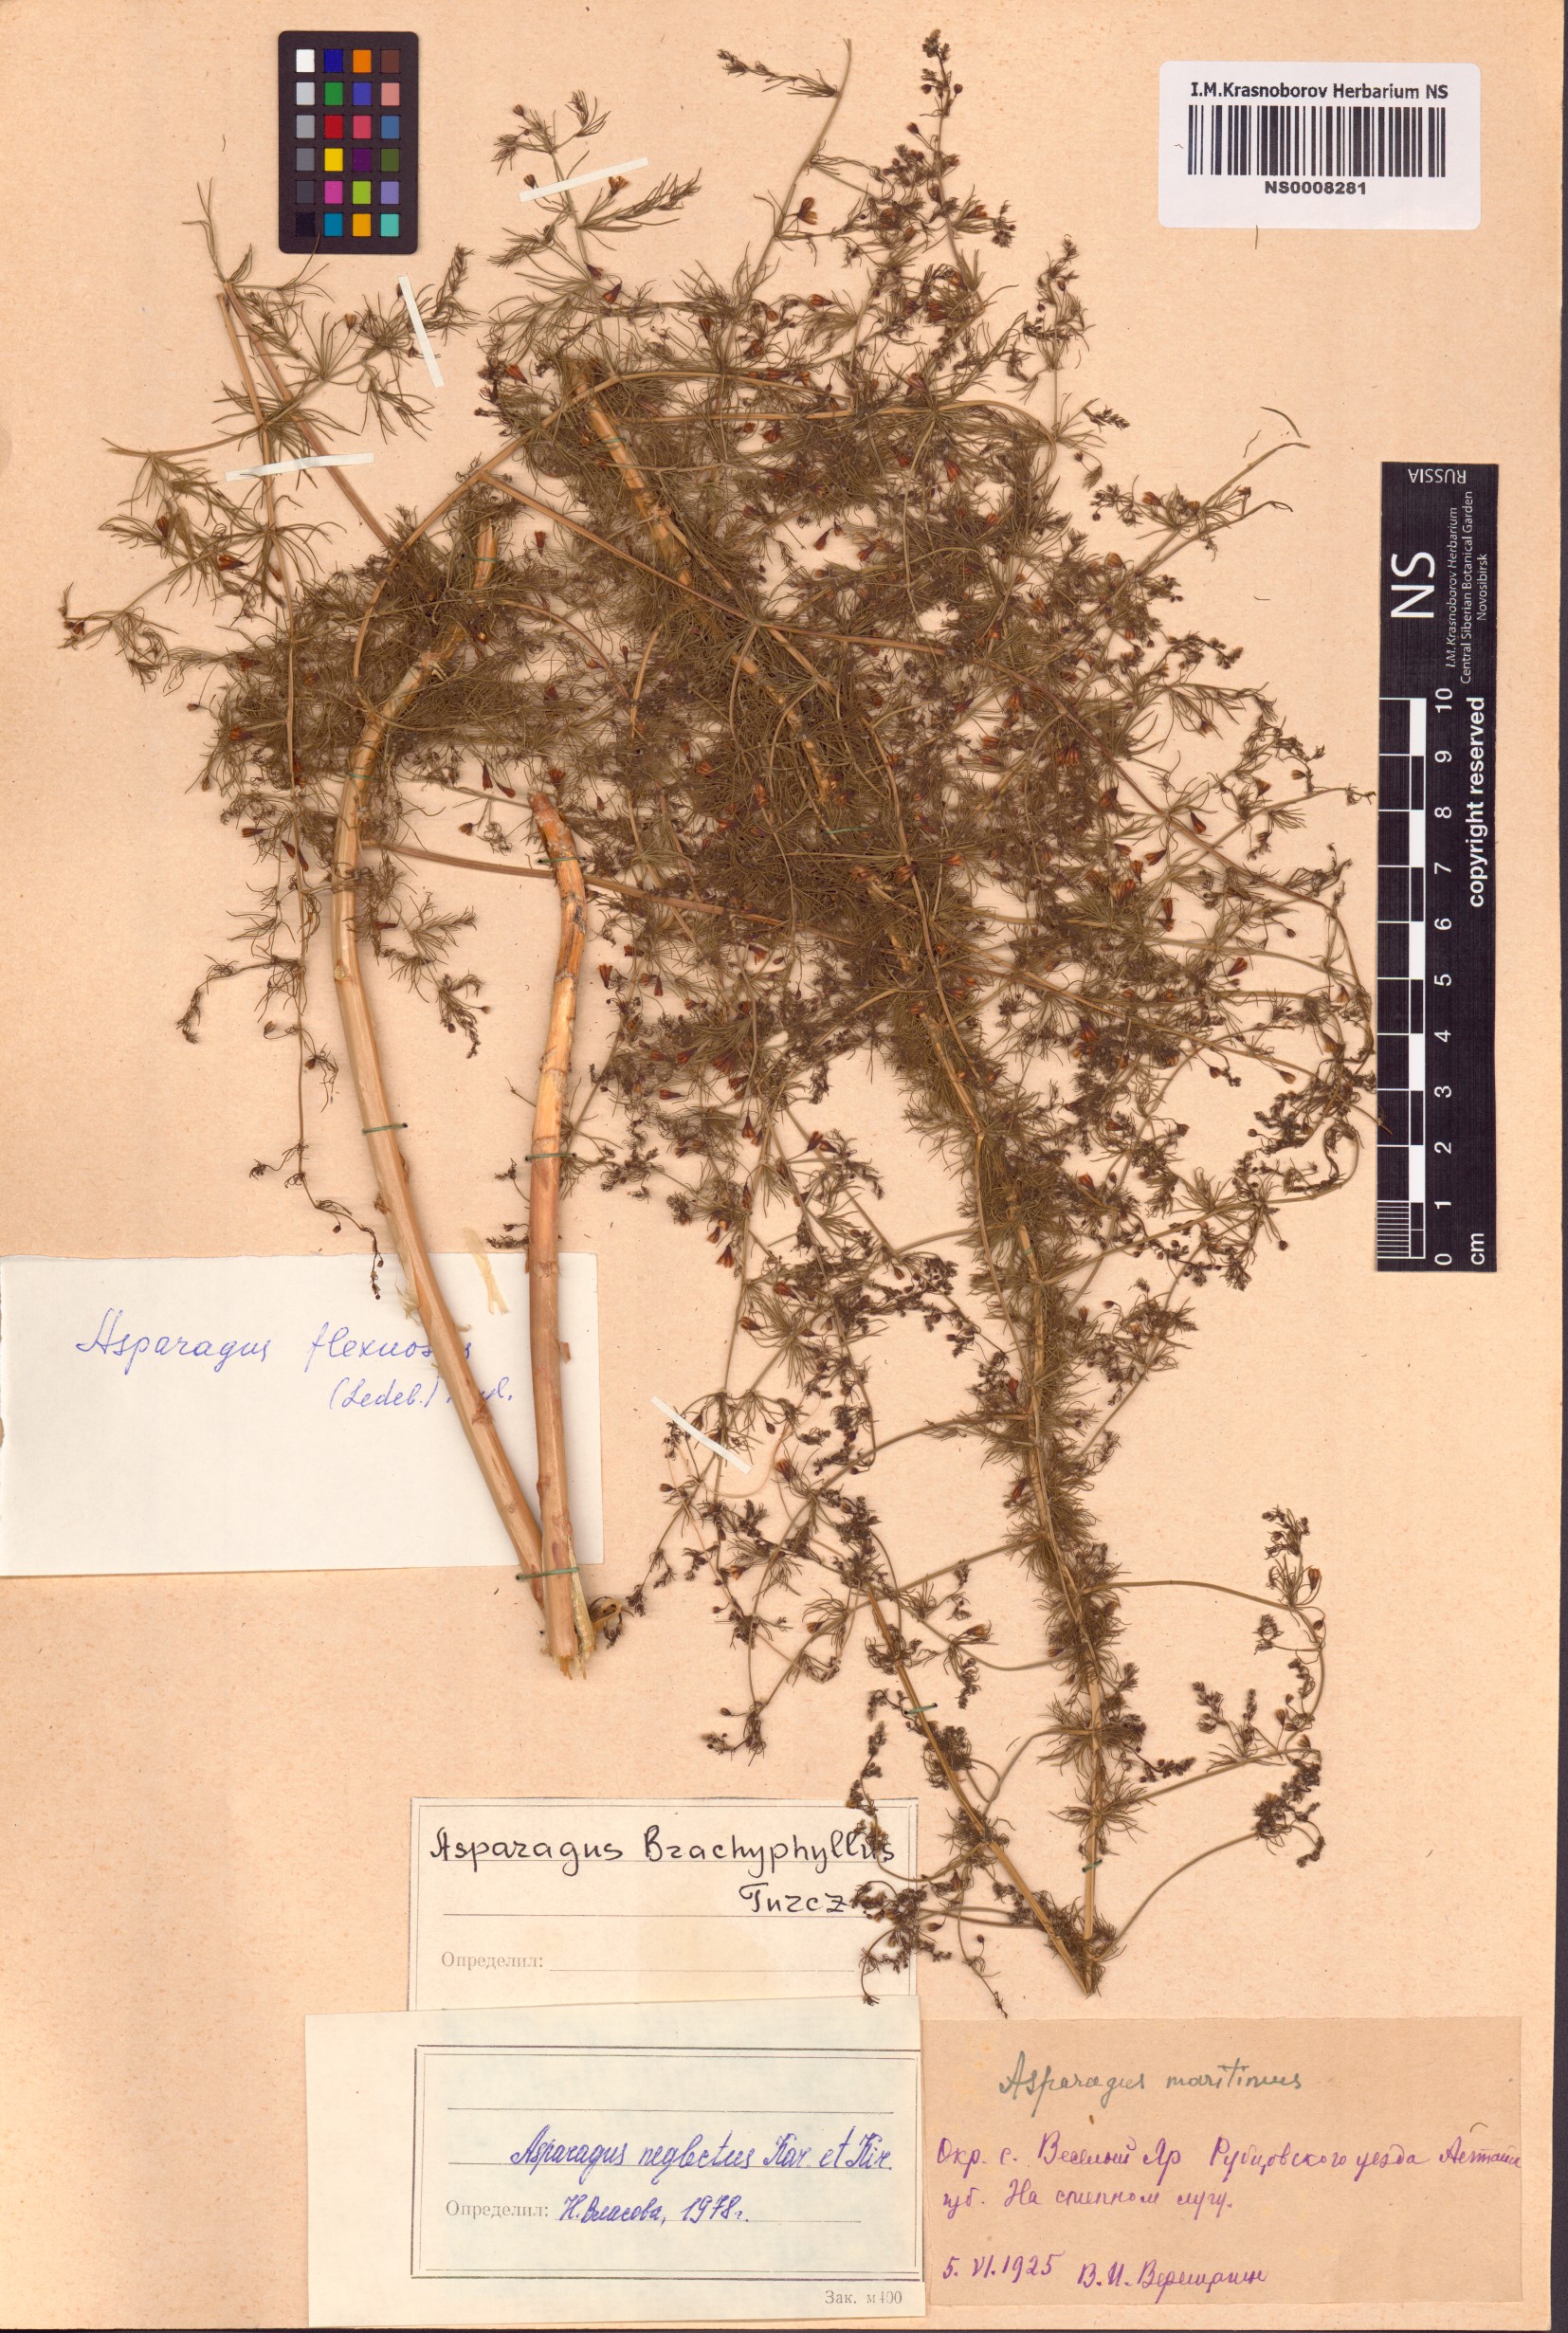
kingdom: Plantae
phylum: Tracheophyta
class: Liliopsida
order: Asparagales
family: Asparagaceae
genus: Asparagus
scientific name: Asparagus neglectus
